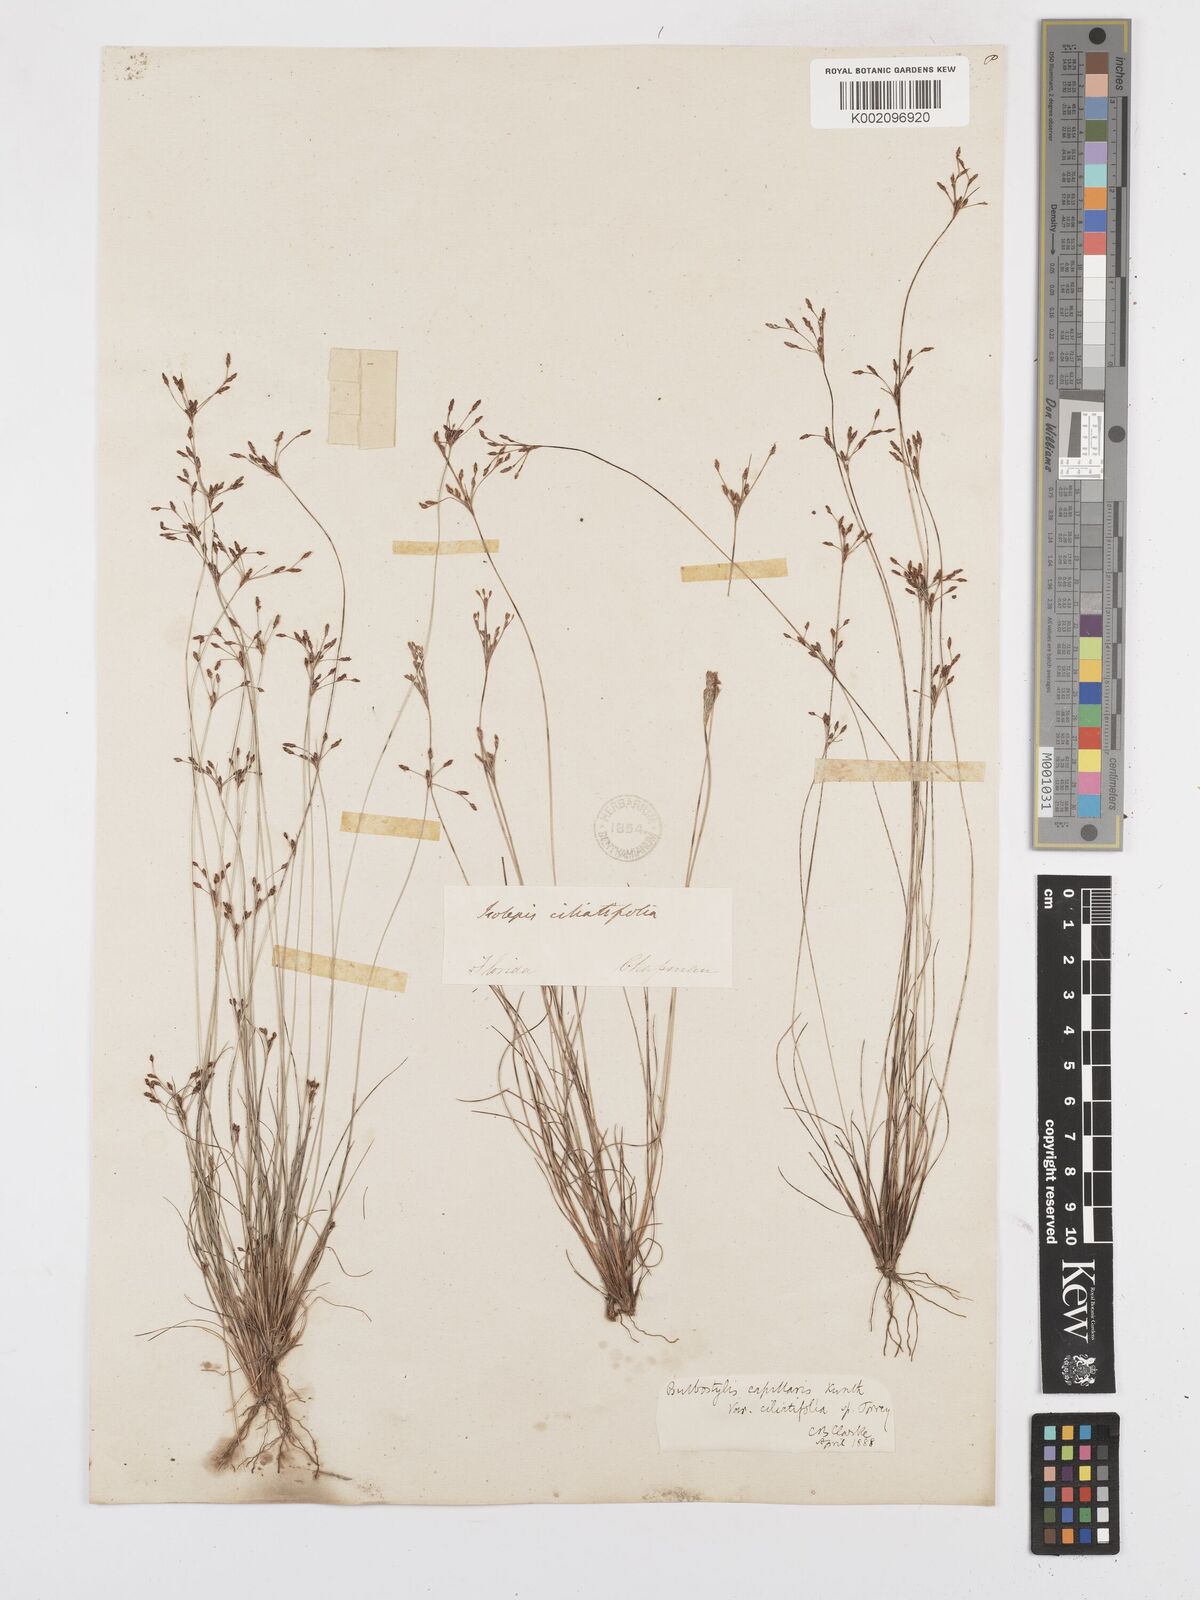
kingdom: Plantae
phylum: Tracheophyta
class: Liliopsida
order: Poales
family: Cyperaceae
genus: Bulbostylis
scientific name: Bulbostylis ciliatifolia
